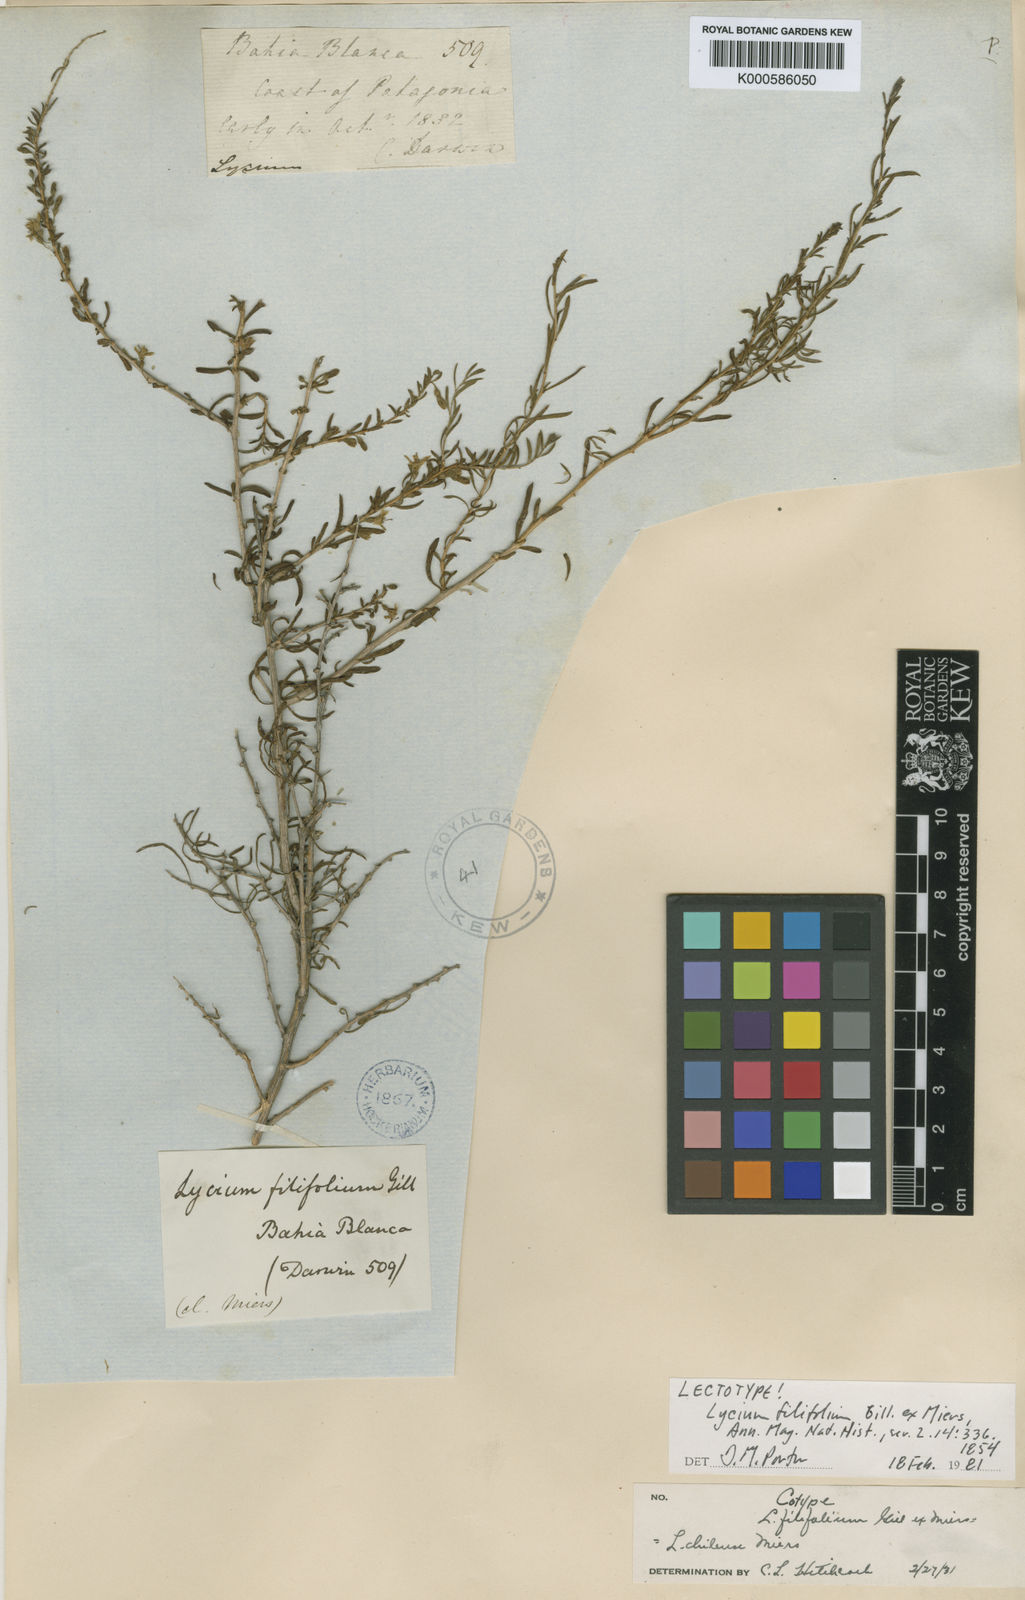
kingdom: Plantae
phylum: Tracheophyta
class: Magnoliopsida
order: Solanales
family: Solanaceae
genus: Lycium
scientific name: Lycium chilense
